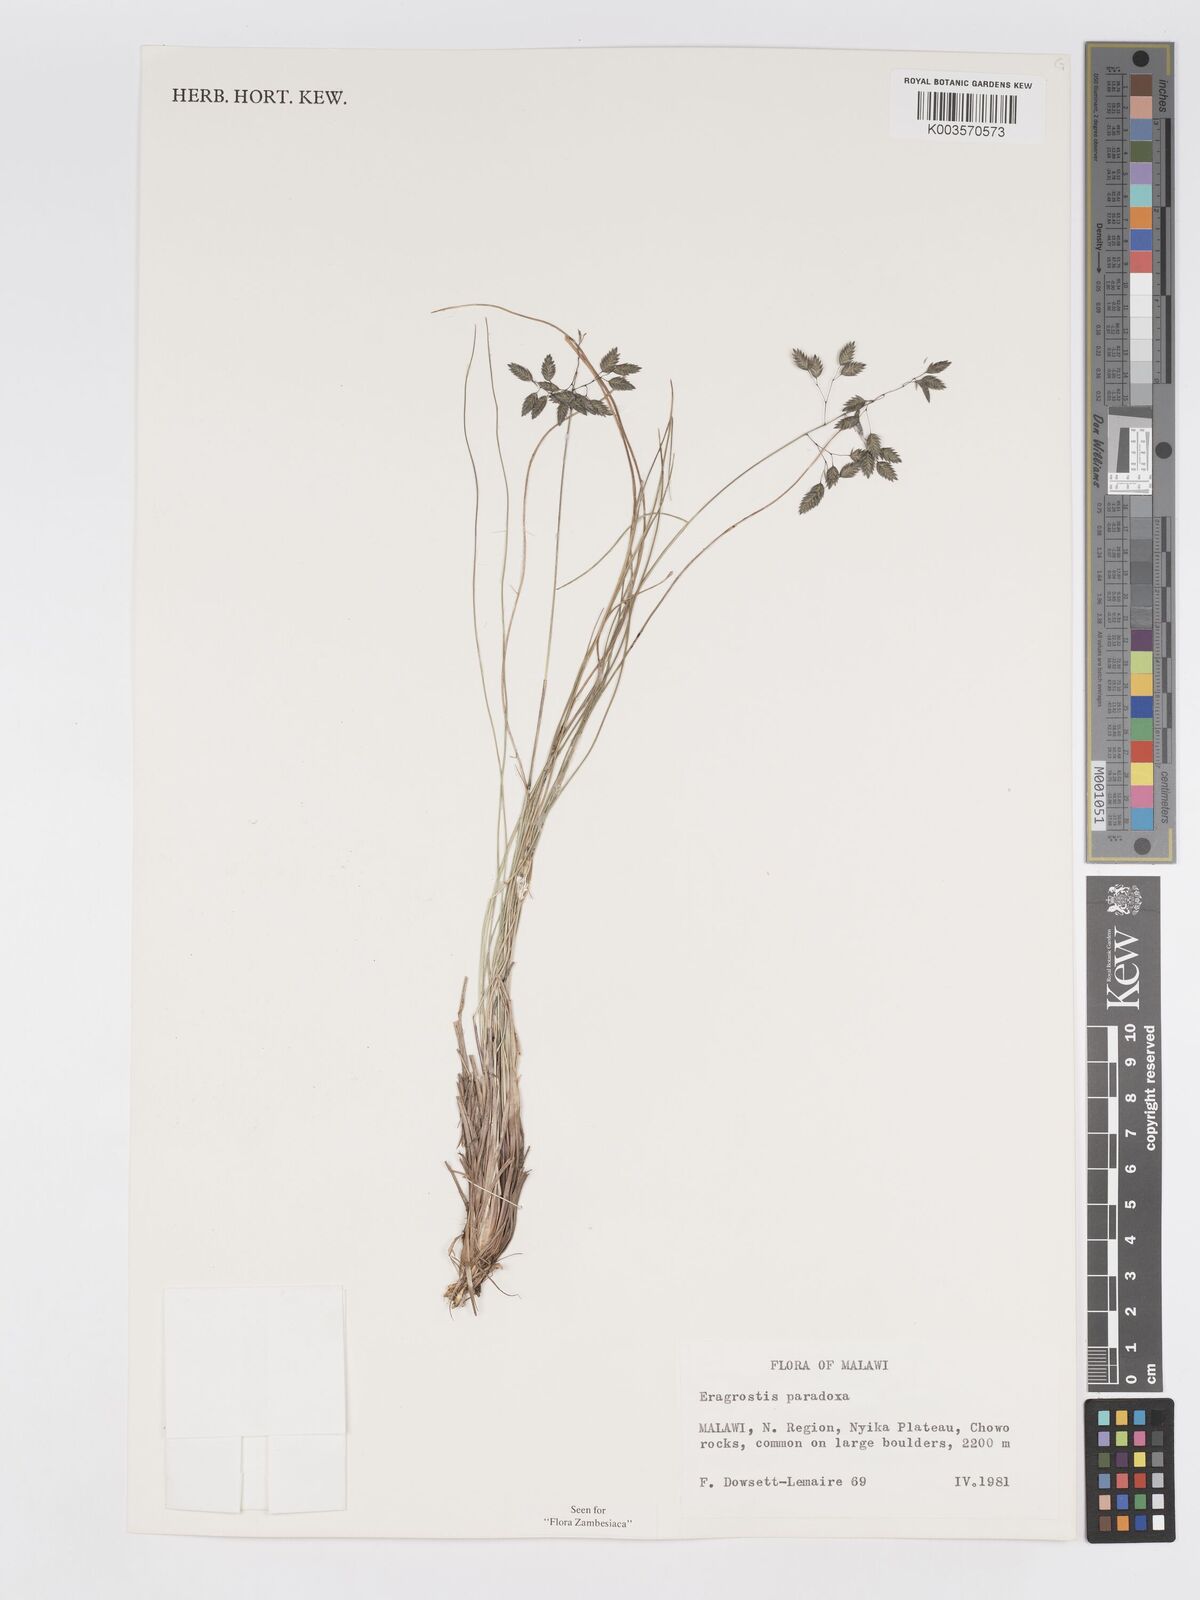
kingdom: Plantae
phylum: Tracheophyta
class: Liliopsida
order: Poales
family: Poaceae
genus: Eragrostis
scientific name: Eragrostis paradoxa
